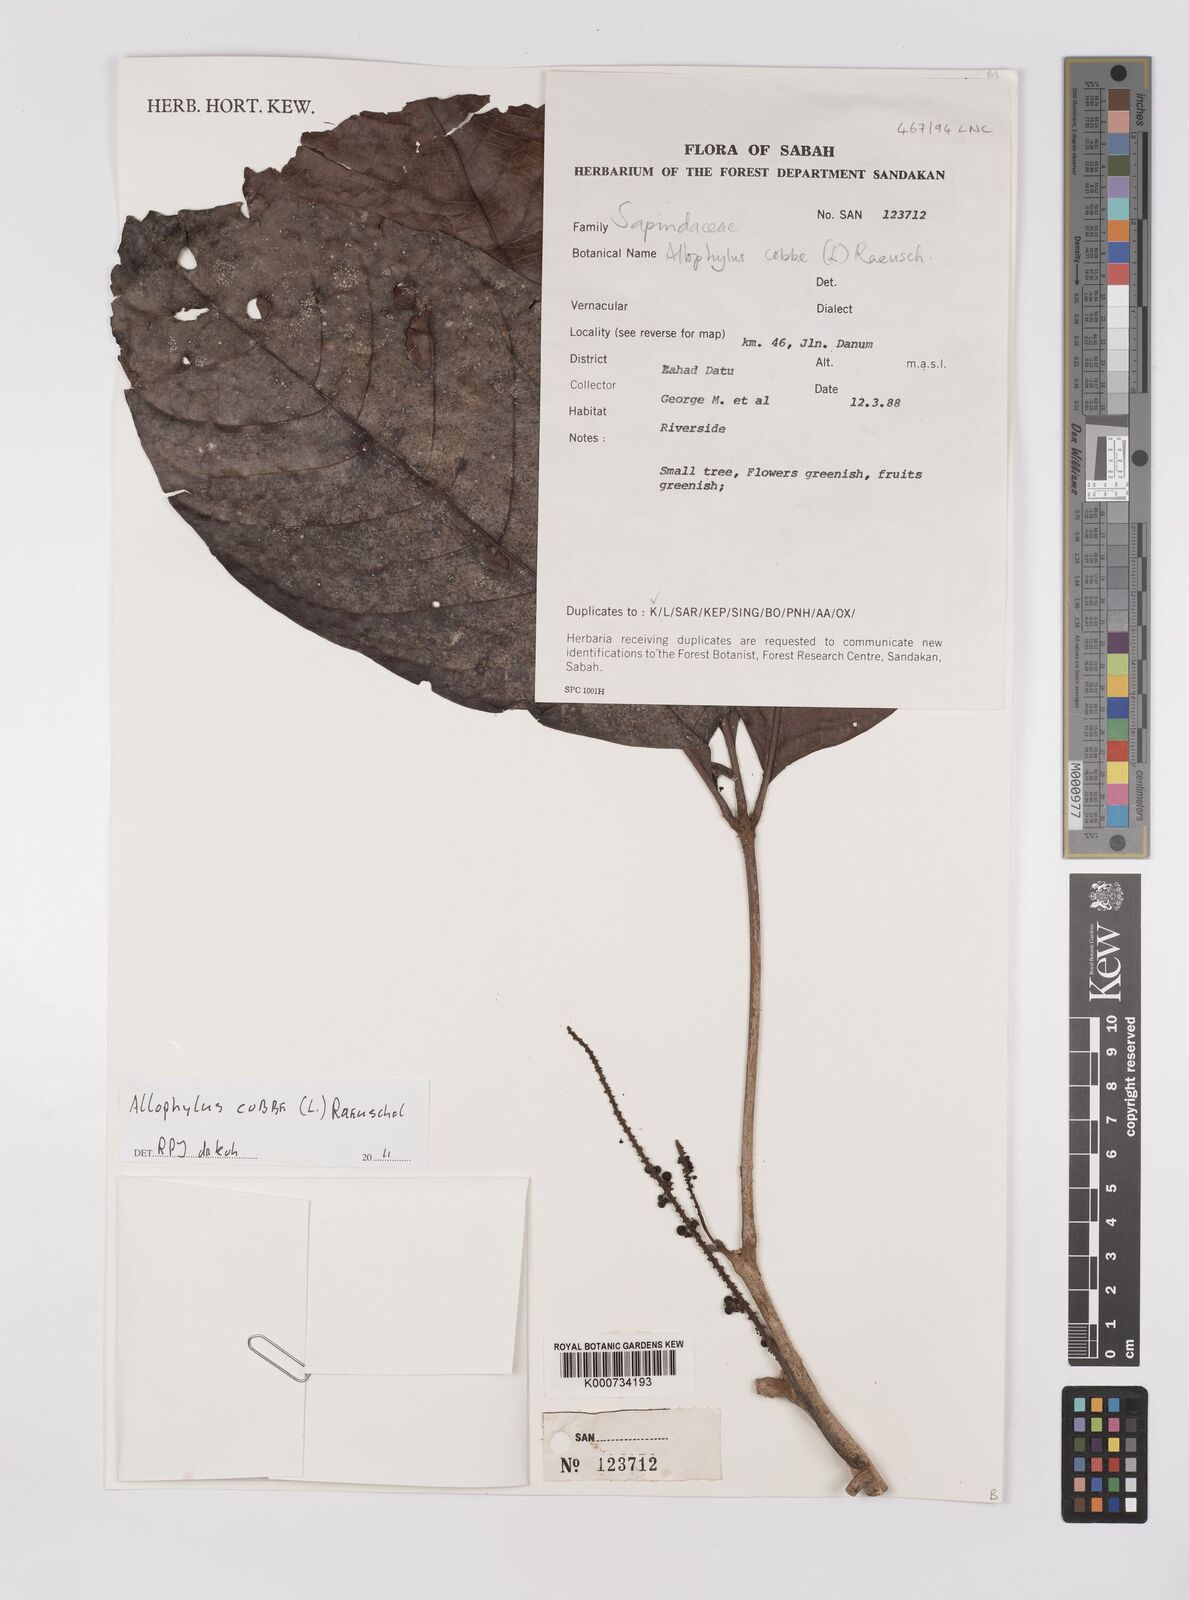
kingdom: Plantae
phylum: Tracheophyta
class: Magnoliopsida
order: Sapindales
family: Sapindaceae
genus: Allophylus
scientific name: Allophylus
